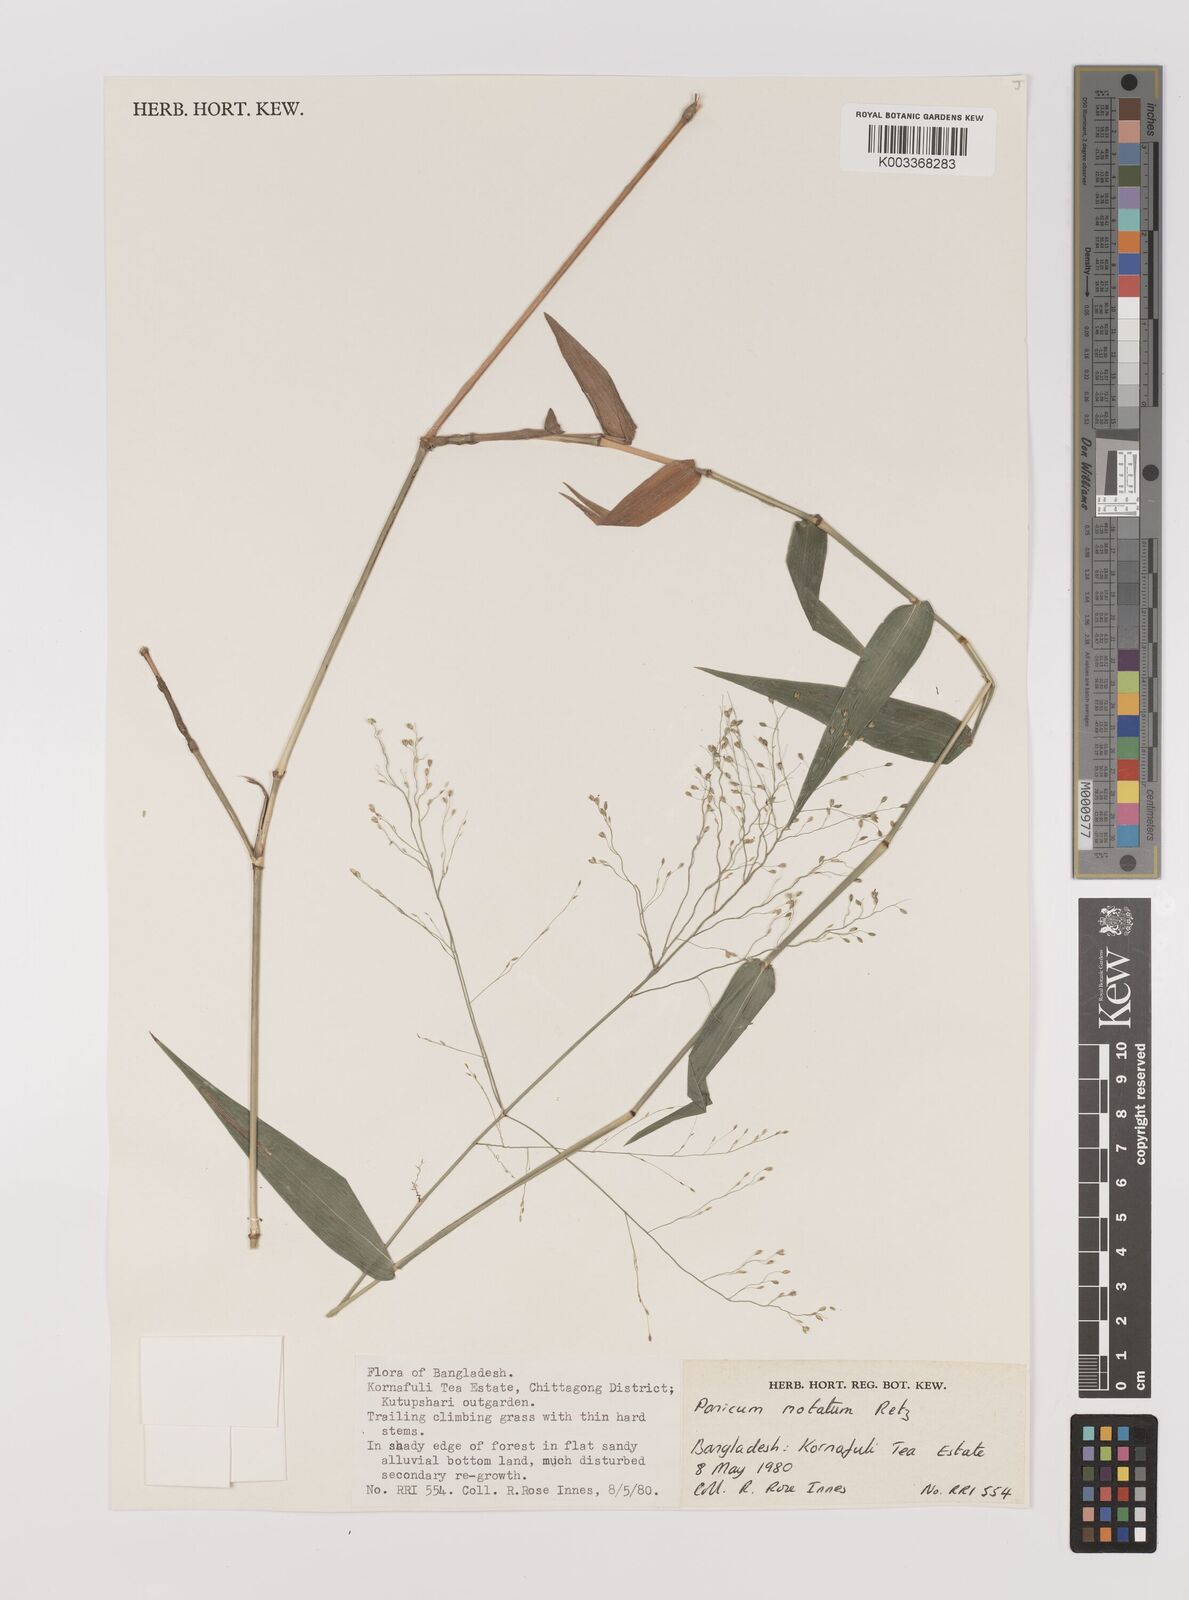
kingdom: Plantae
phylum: Tracheophyta
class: Liliopsida
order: Poales
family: Poaceae
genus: Panicum
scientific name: Panicum notatum
